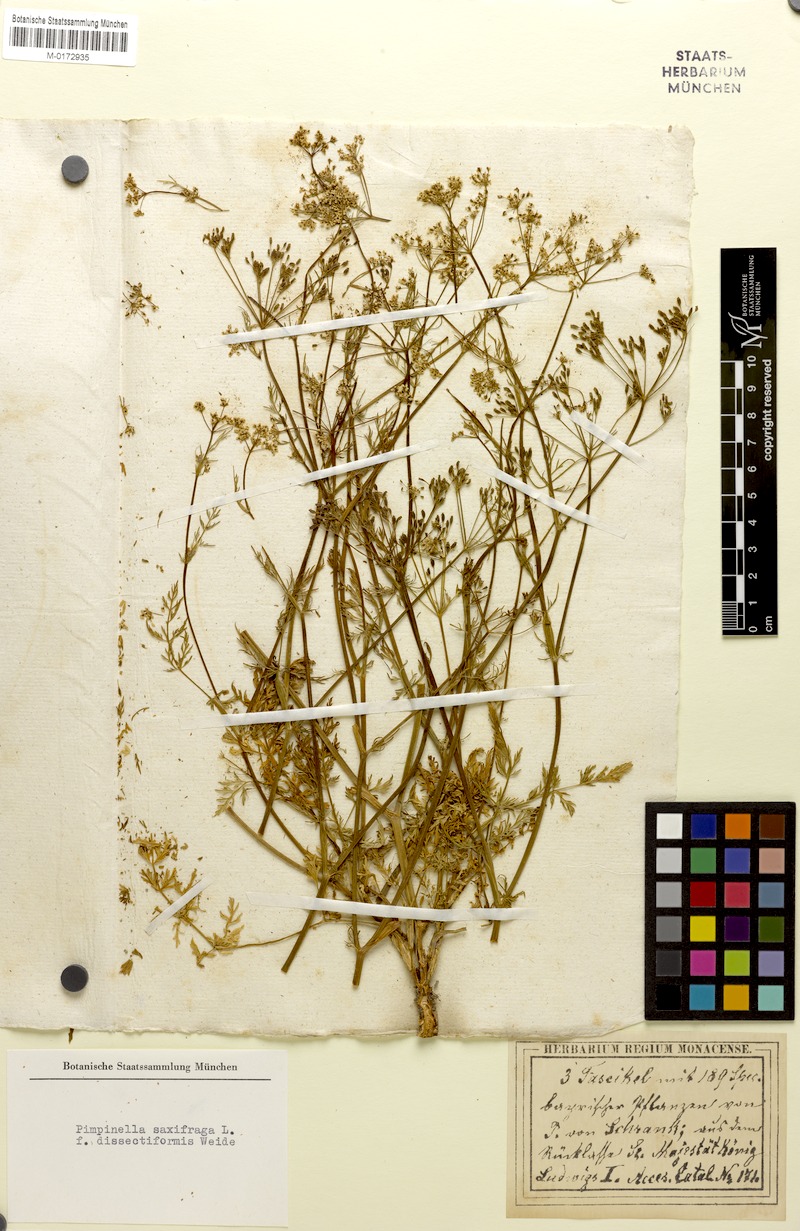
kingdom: Plantae
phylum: Tracheophyta
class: Magnoliopsida
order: Apiales
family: Apiaceae
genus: Carum
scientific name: Carum carvi
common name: Caraway
